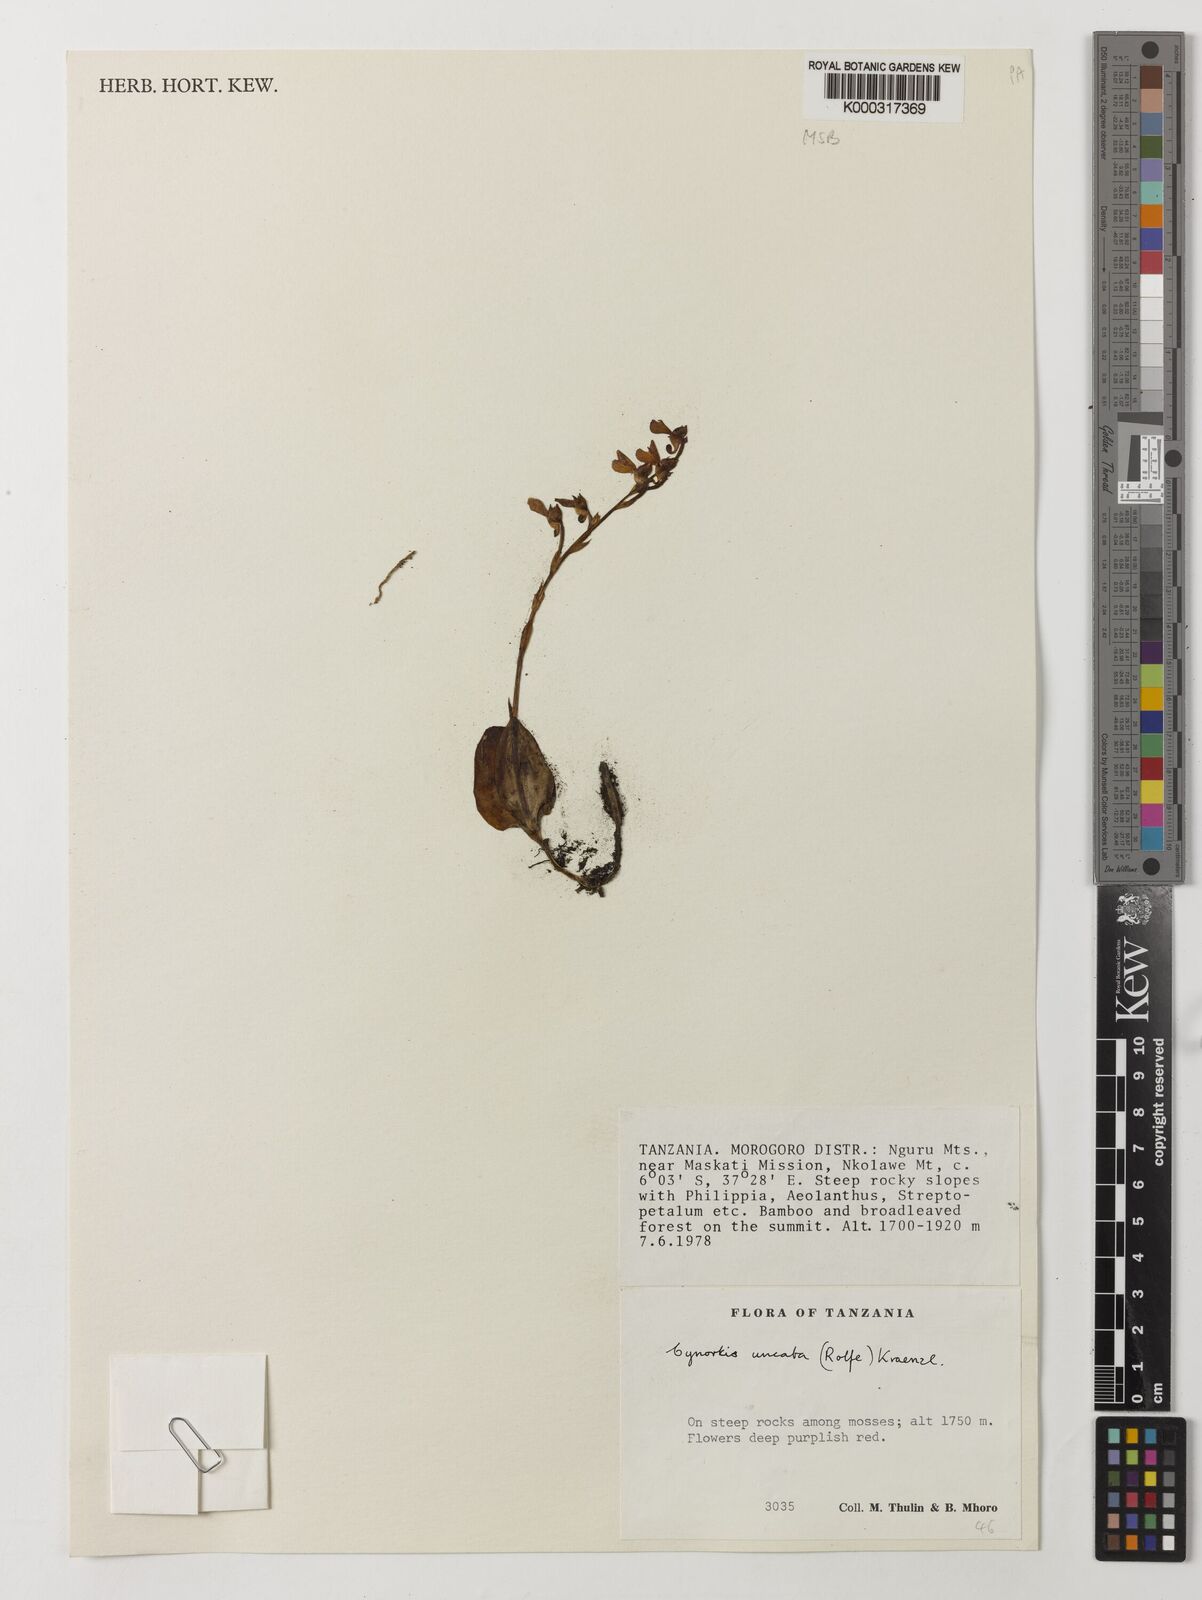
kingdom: Plantae
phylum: Tracheophyta
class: Liliopsida
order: Asparagales
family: Orchidaceae
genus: Cynorkis
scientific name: Cynorkis uncata
